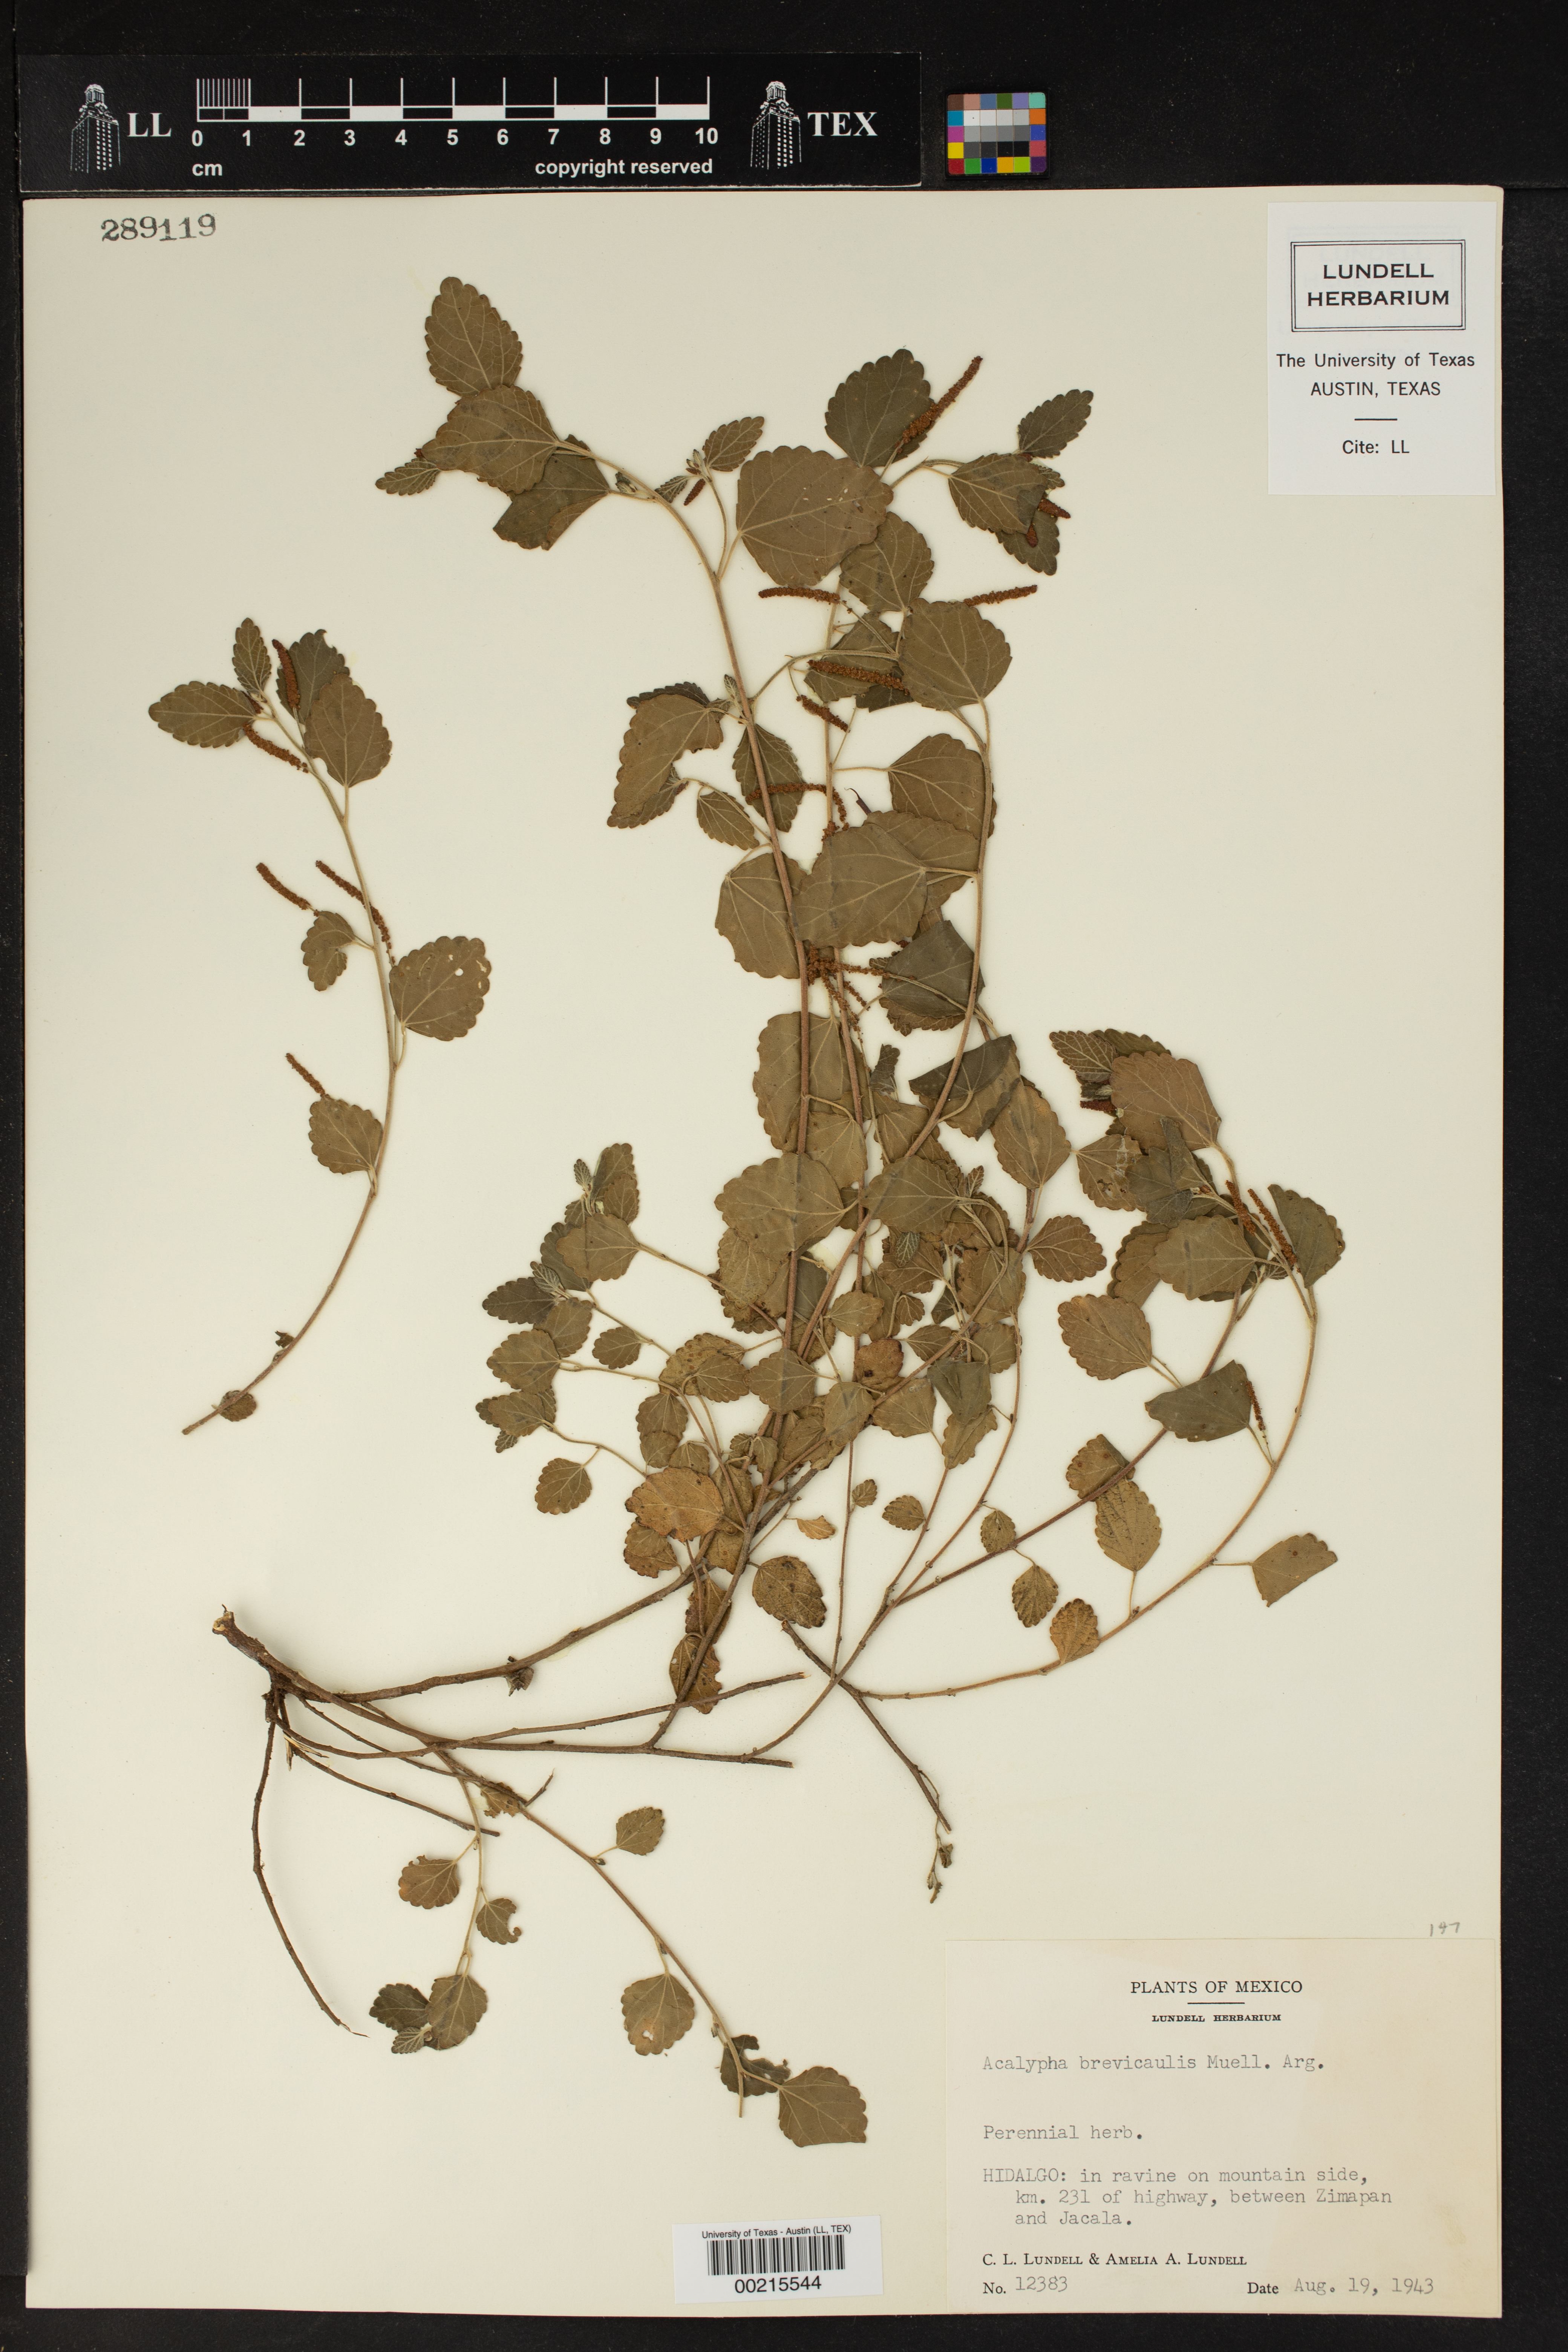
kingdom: Plantae
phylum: Tracheophyta
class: Magnoliopsida
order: Malpighiales
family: Euphorbiaceae
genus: Acalypha
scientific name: Acalypha brevicaulis
